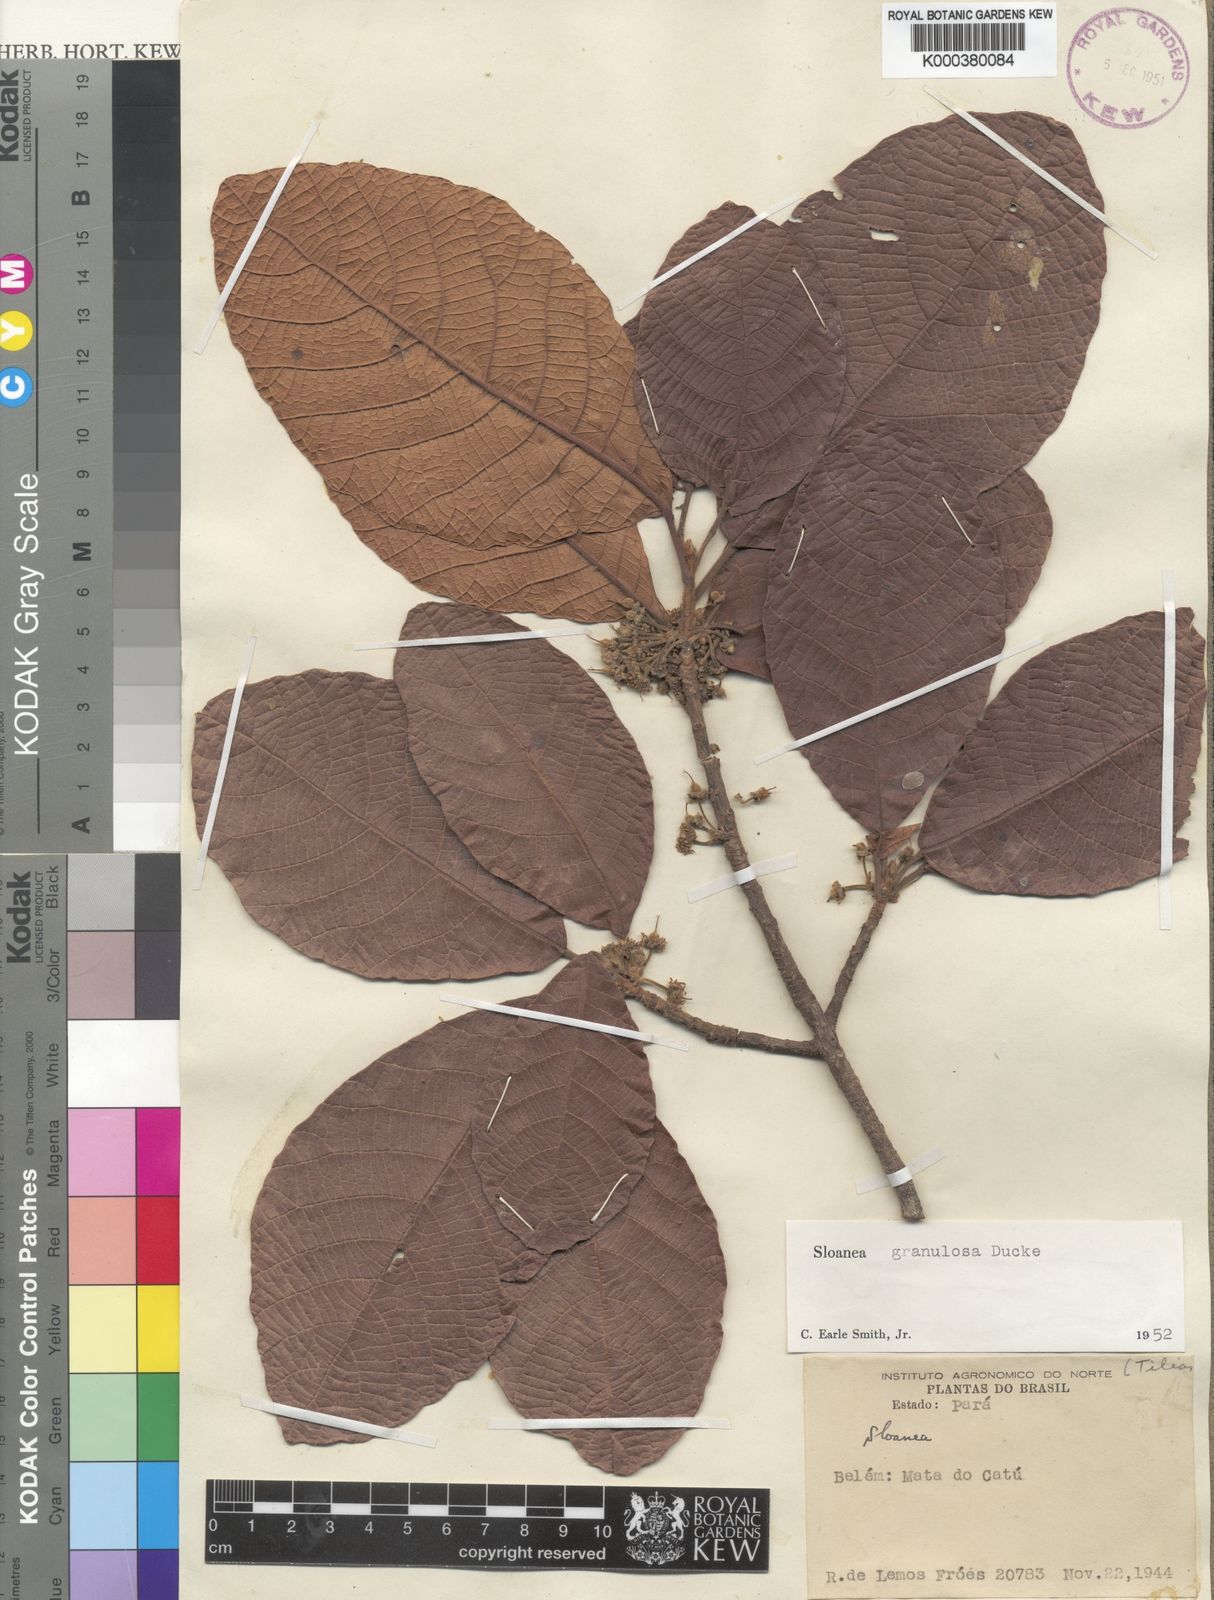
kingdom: Plantae
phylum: Tracheophyta
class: Magnoliopsida
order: Oxalidales
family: Elaeocarpaceae
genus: Sloanea
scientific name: Sloanea granulosa
